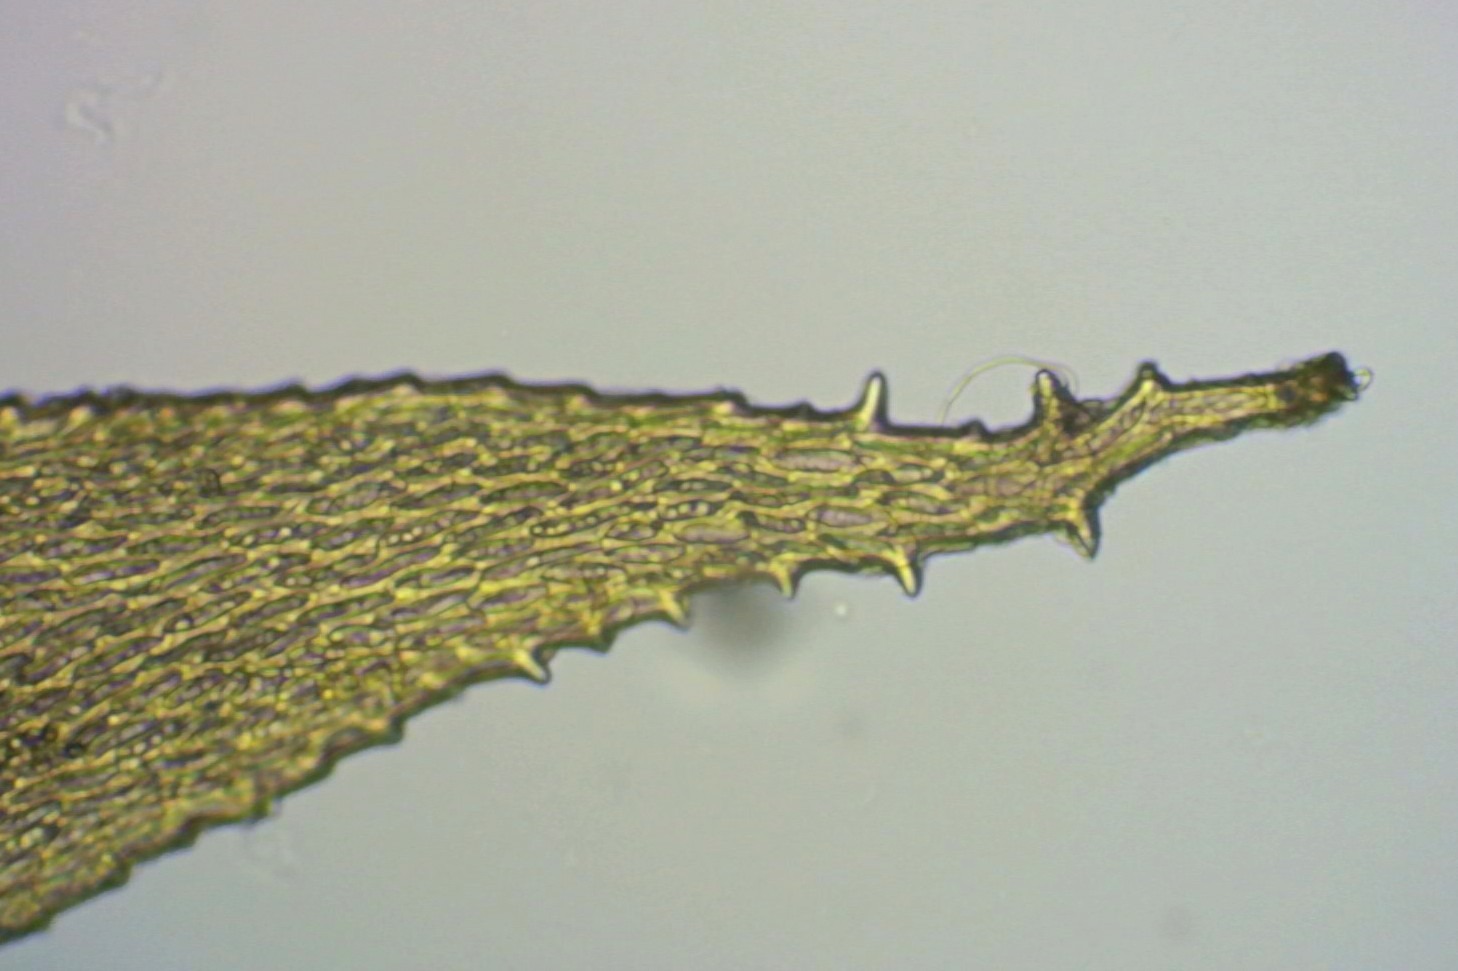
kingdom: Plantae
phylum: Bryophyta
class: Bryopsida
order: Hypnales
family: Antitrichiaceae
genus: Antitrichia
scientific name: Antitrichia curtipendula
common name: Åben krogtand
